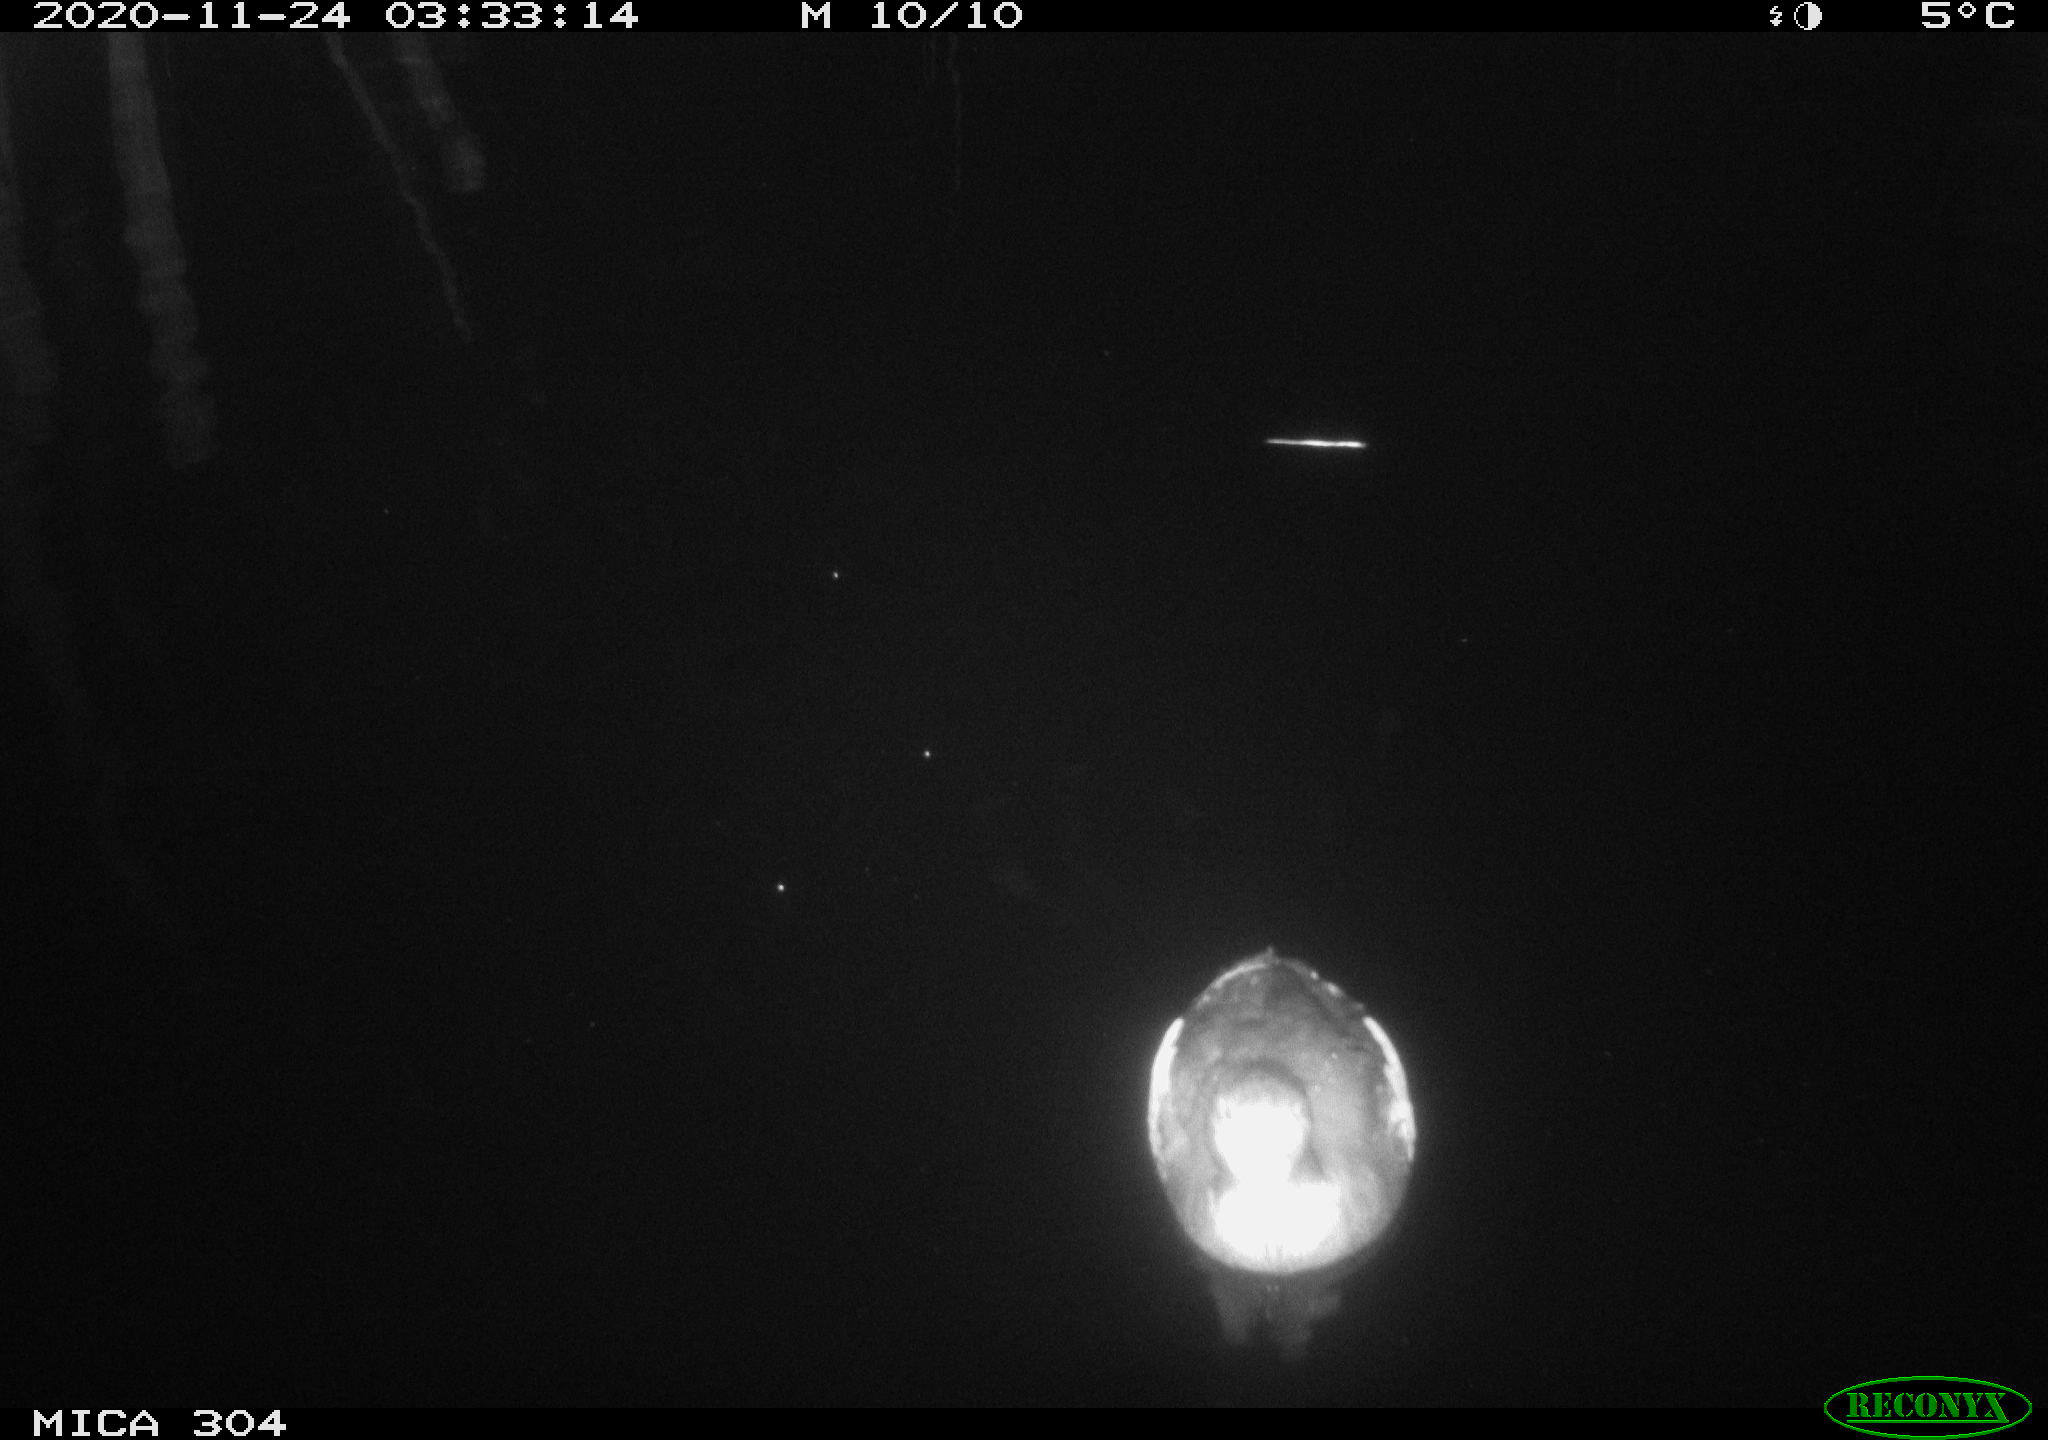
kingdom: Animalia
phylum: Chordata
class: Aves
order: Anseriformes
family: Anatidae
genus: Anas
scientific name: Anas platyrhynchos
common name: Mallard
